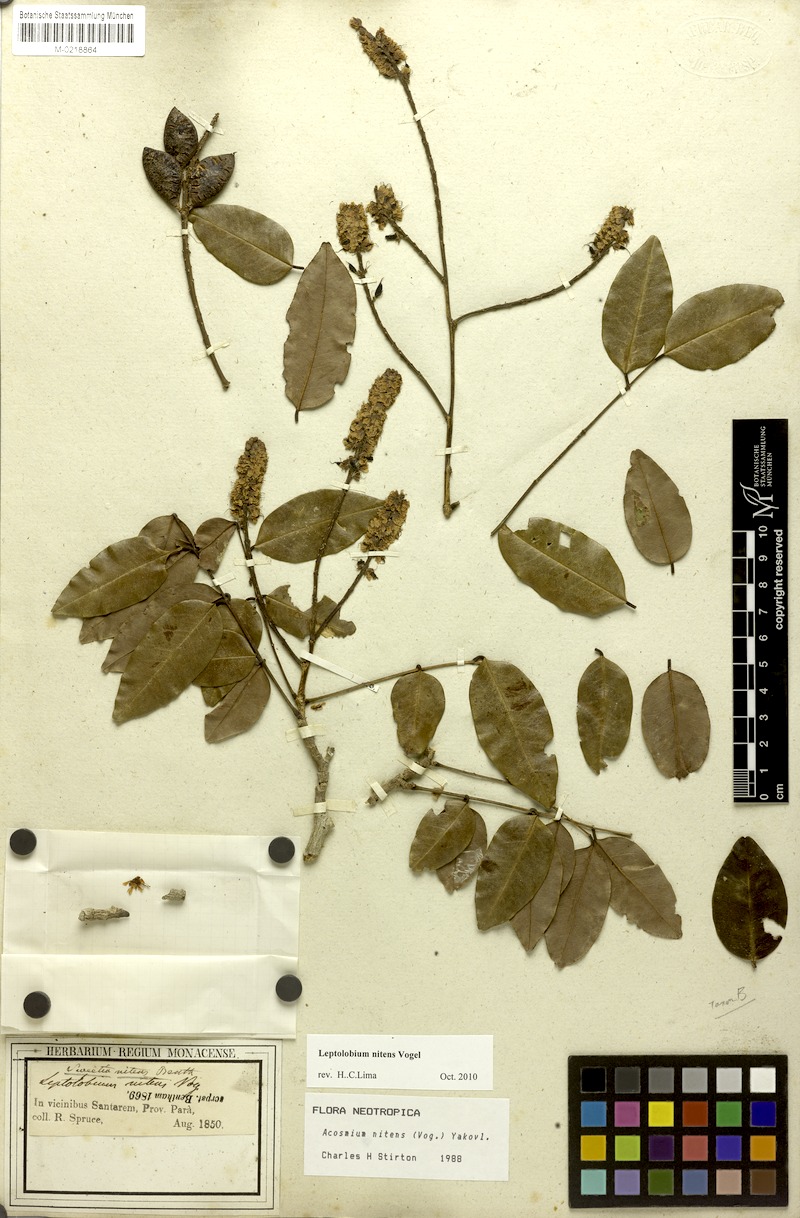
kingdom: Plantae
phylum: Tracheophyta
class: Magnoliopsida
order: Fabales
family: Fabaceae
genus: Leptolobium
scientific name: Leptolobium nitens
